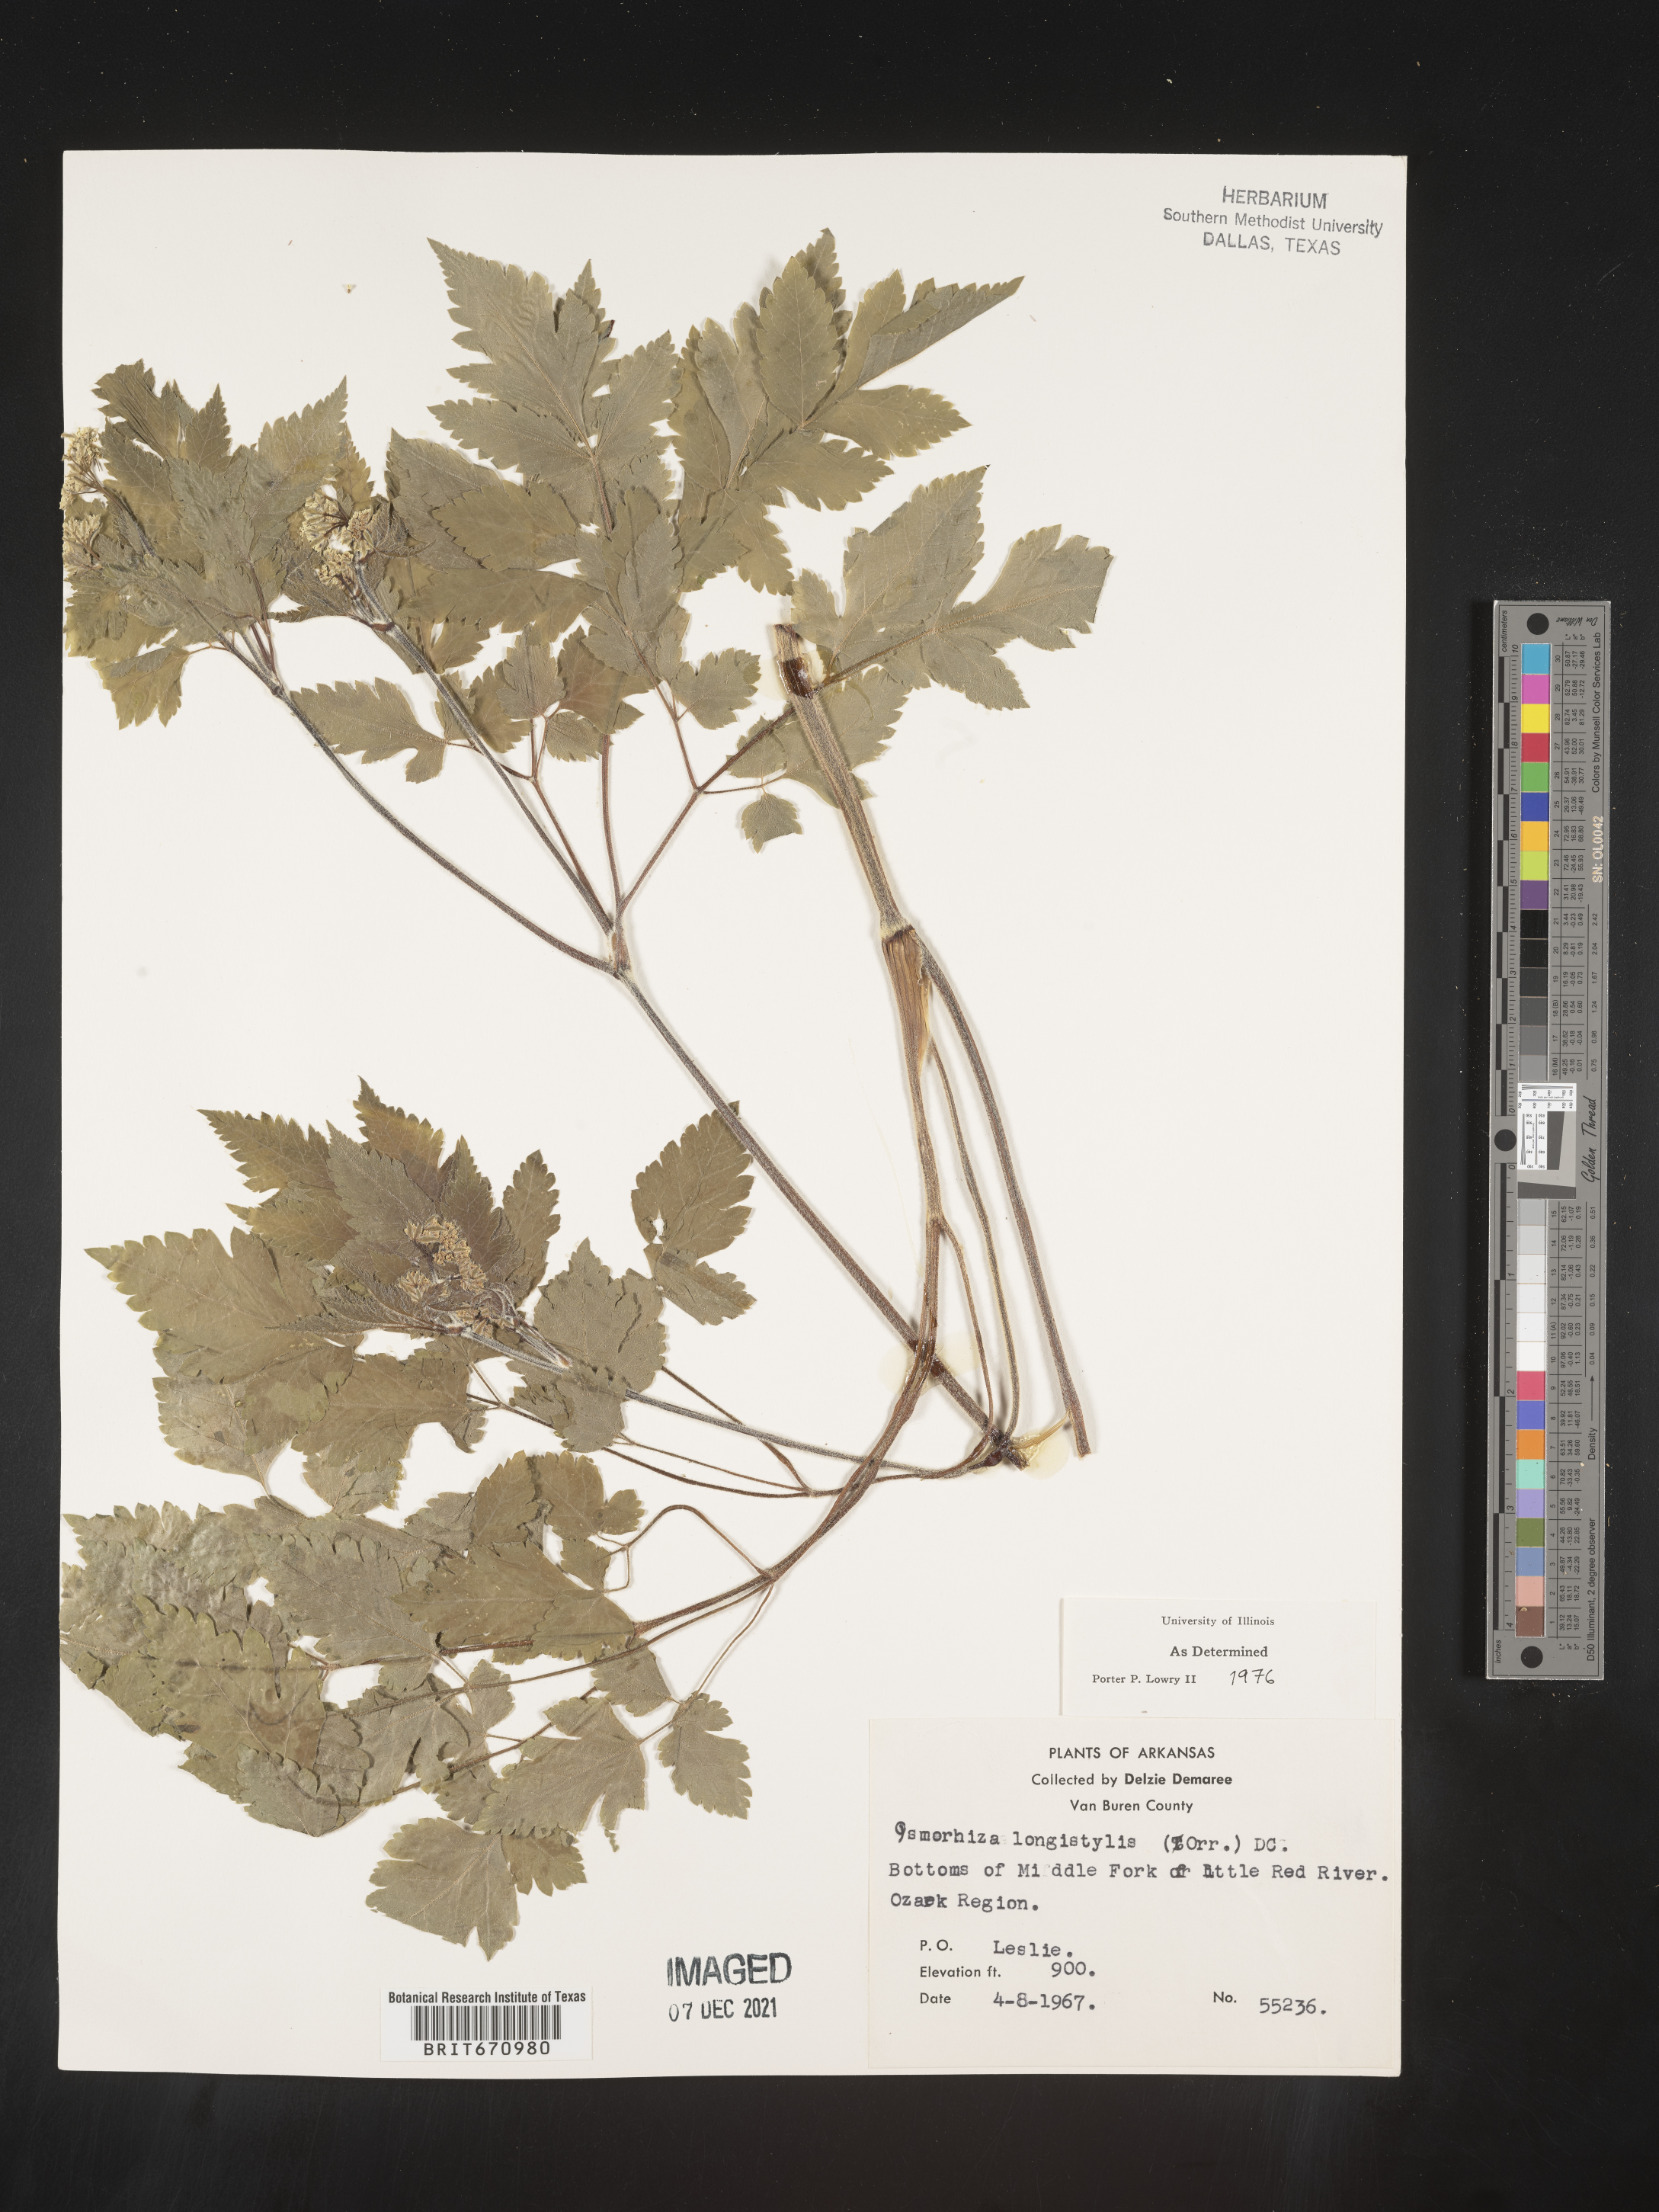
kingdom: Plantae
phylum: Tracheophyta
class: Magnoliopsida
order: Apiales
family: Apiaceae
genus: Osmorhiza
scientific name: Osmorhiza longistylis
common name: Smooth sweet cicely
